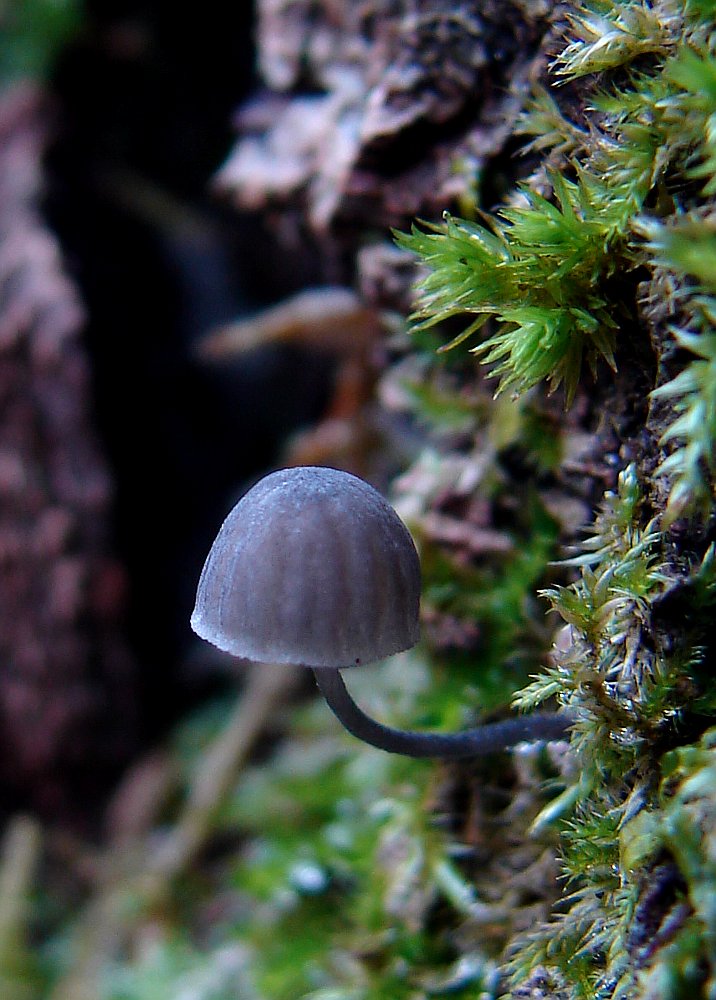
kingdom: Fungi
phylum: Basidiomycota
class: Agaricomycetes
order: Agaricales
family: Mycenaceae
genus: Mycena
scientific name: Mycena pseudocorticola
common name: gråblå bark-huesvamp
